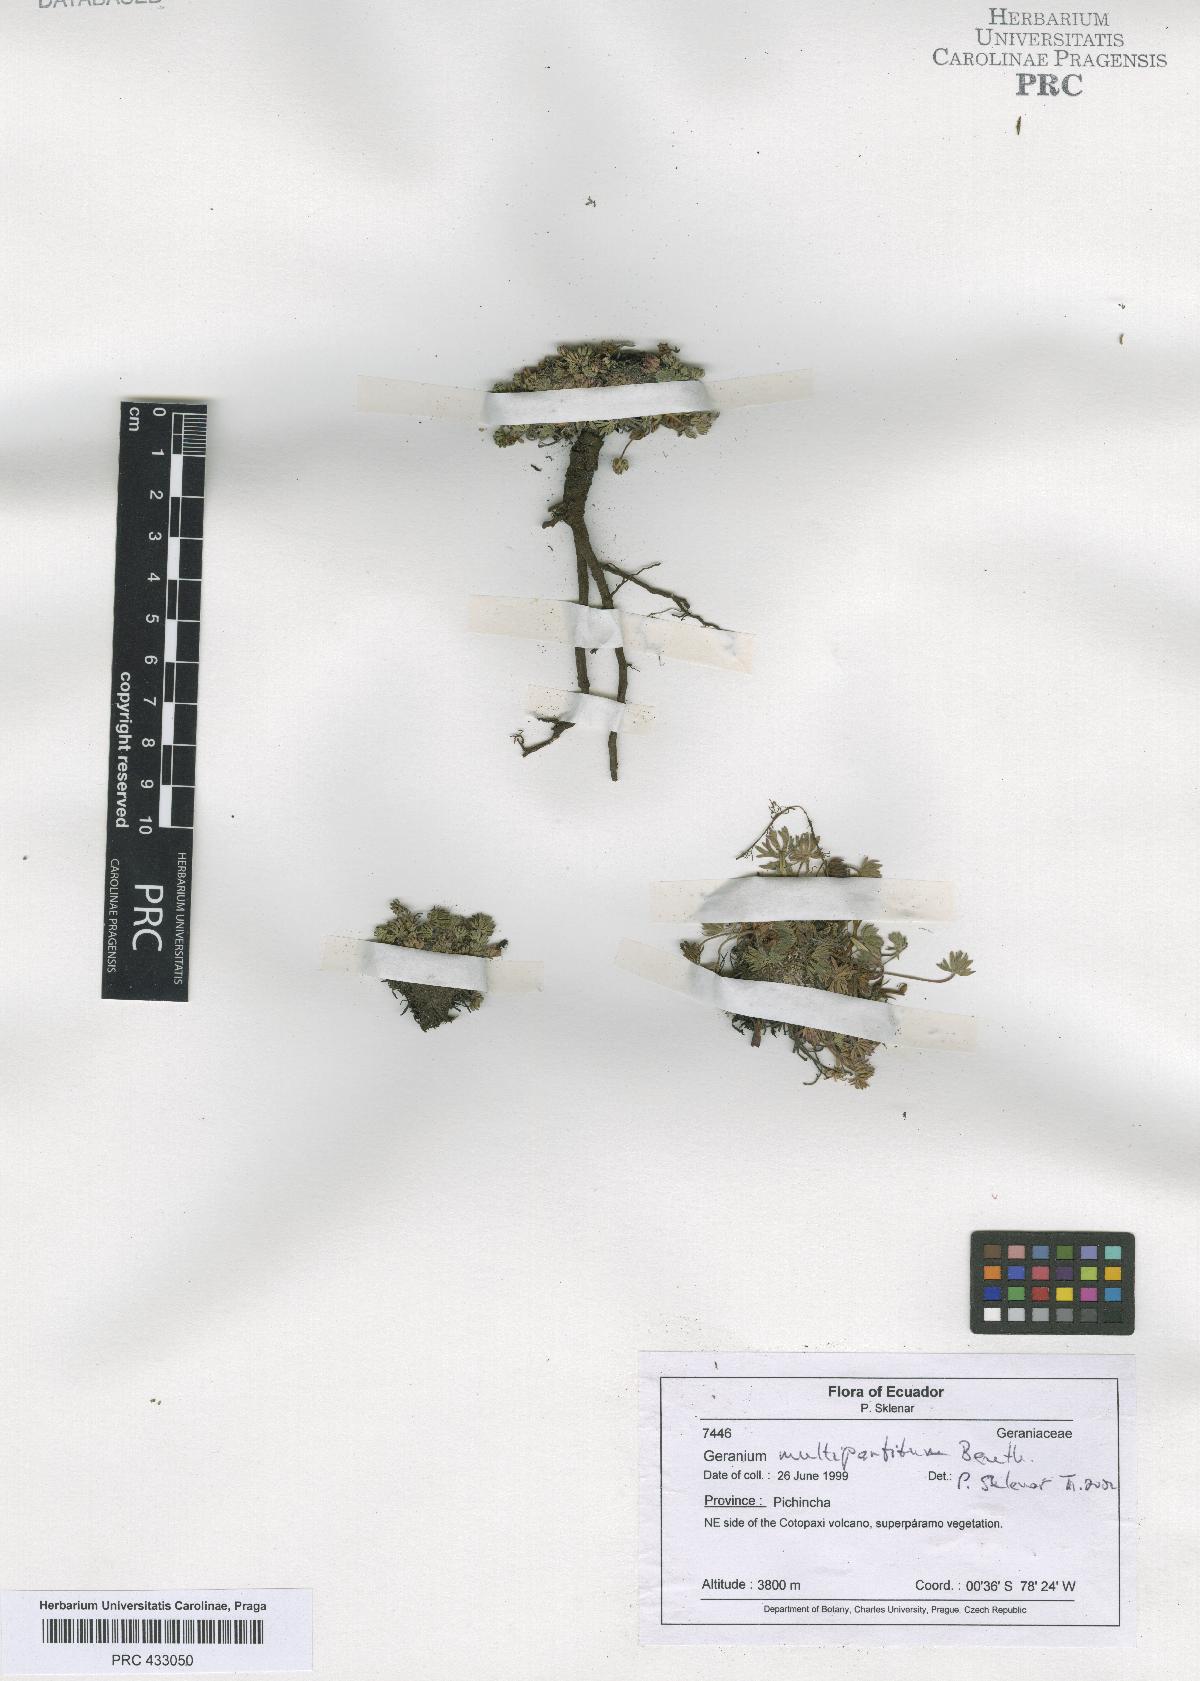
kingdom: Plantae
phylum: Tracheophyta
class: Magnoliopsida
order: Geraniales
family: Geraniaceae
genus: Geranium
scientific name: Geranium multipartitum
